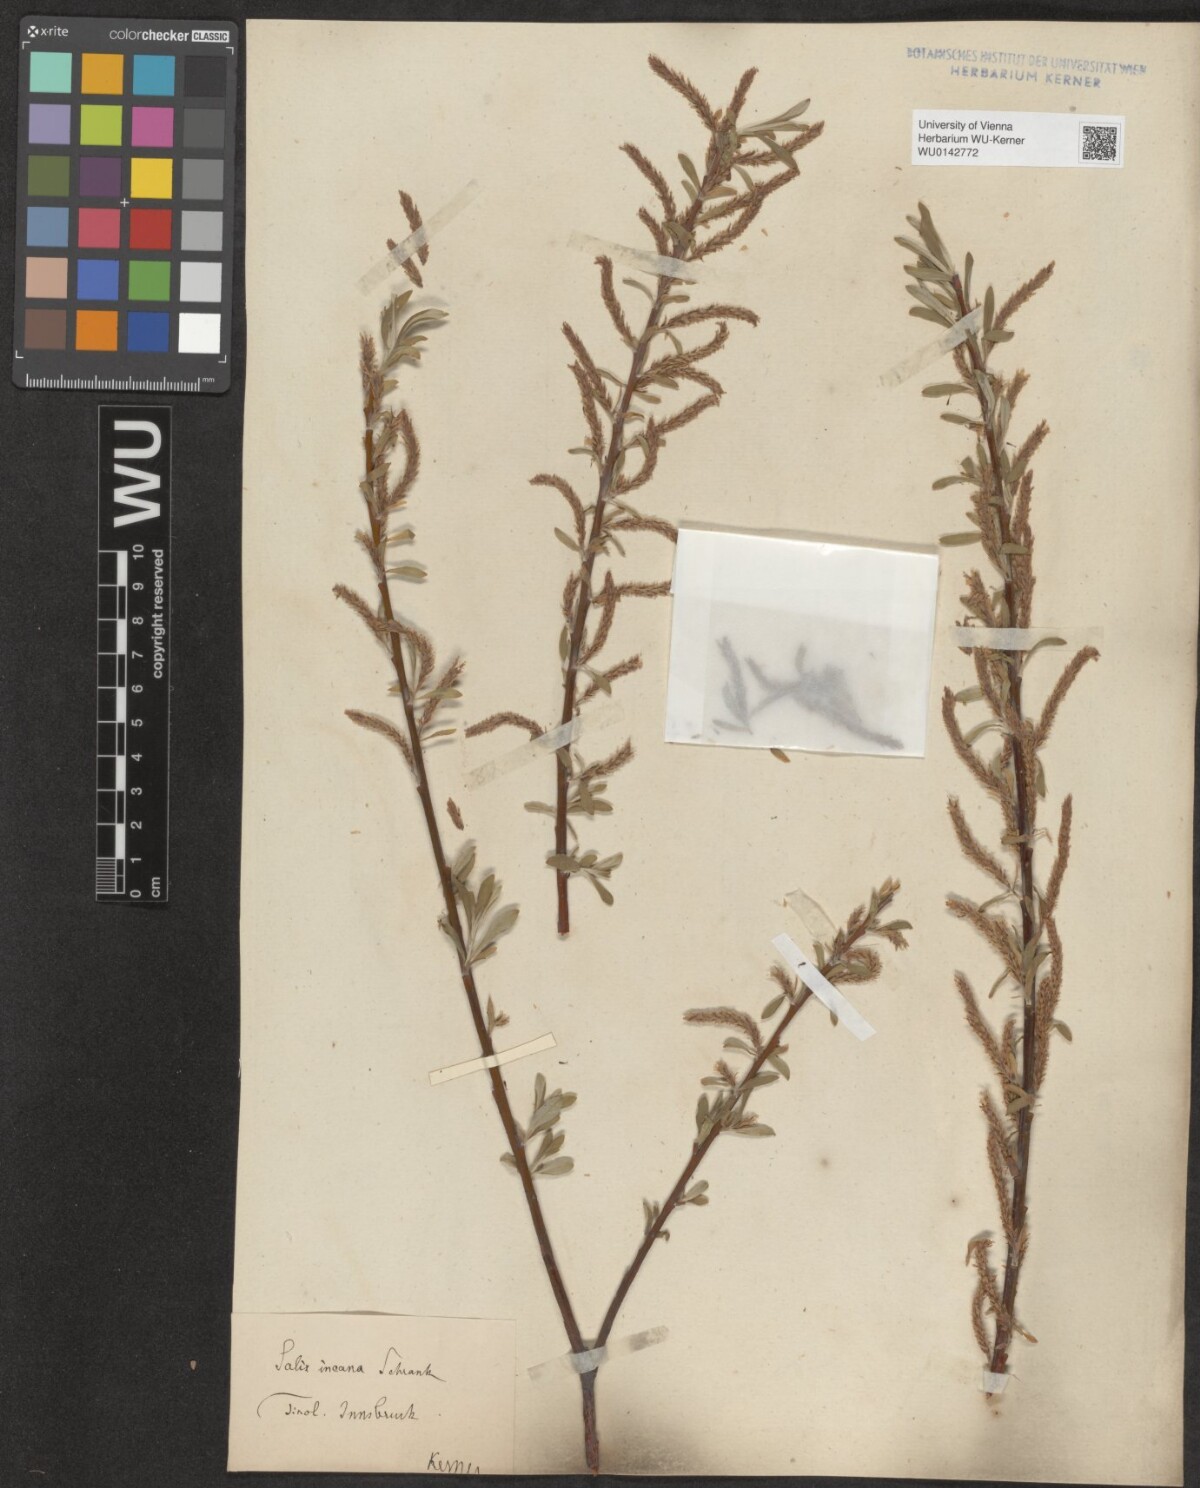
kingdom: Plantae
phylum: Tracheophyta
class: Magnoliopsida
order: Malpighiales
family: Salicaceae
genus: Salix
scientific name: Salix eleagnos
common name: Elaeagnus willow
